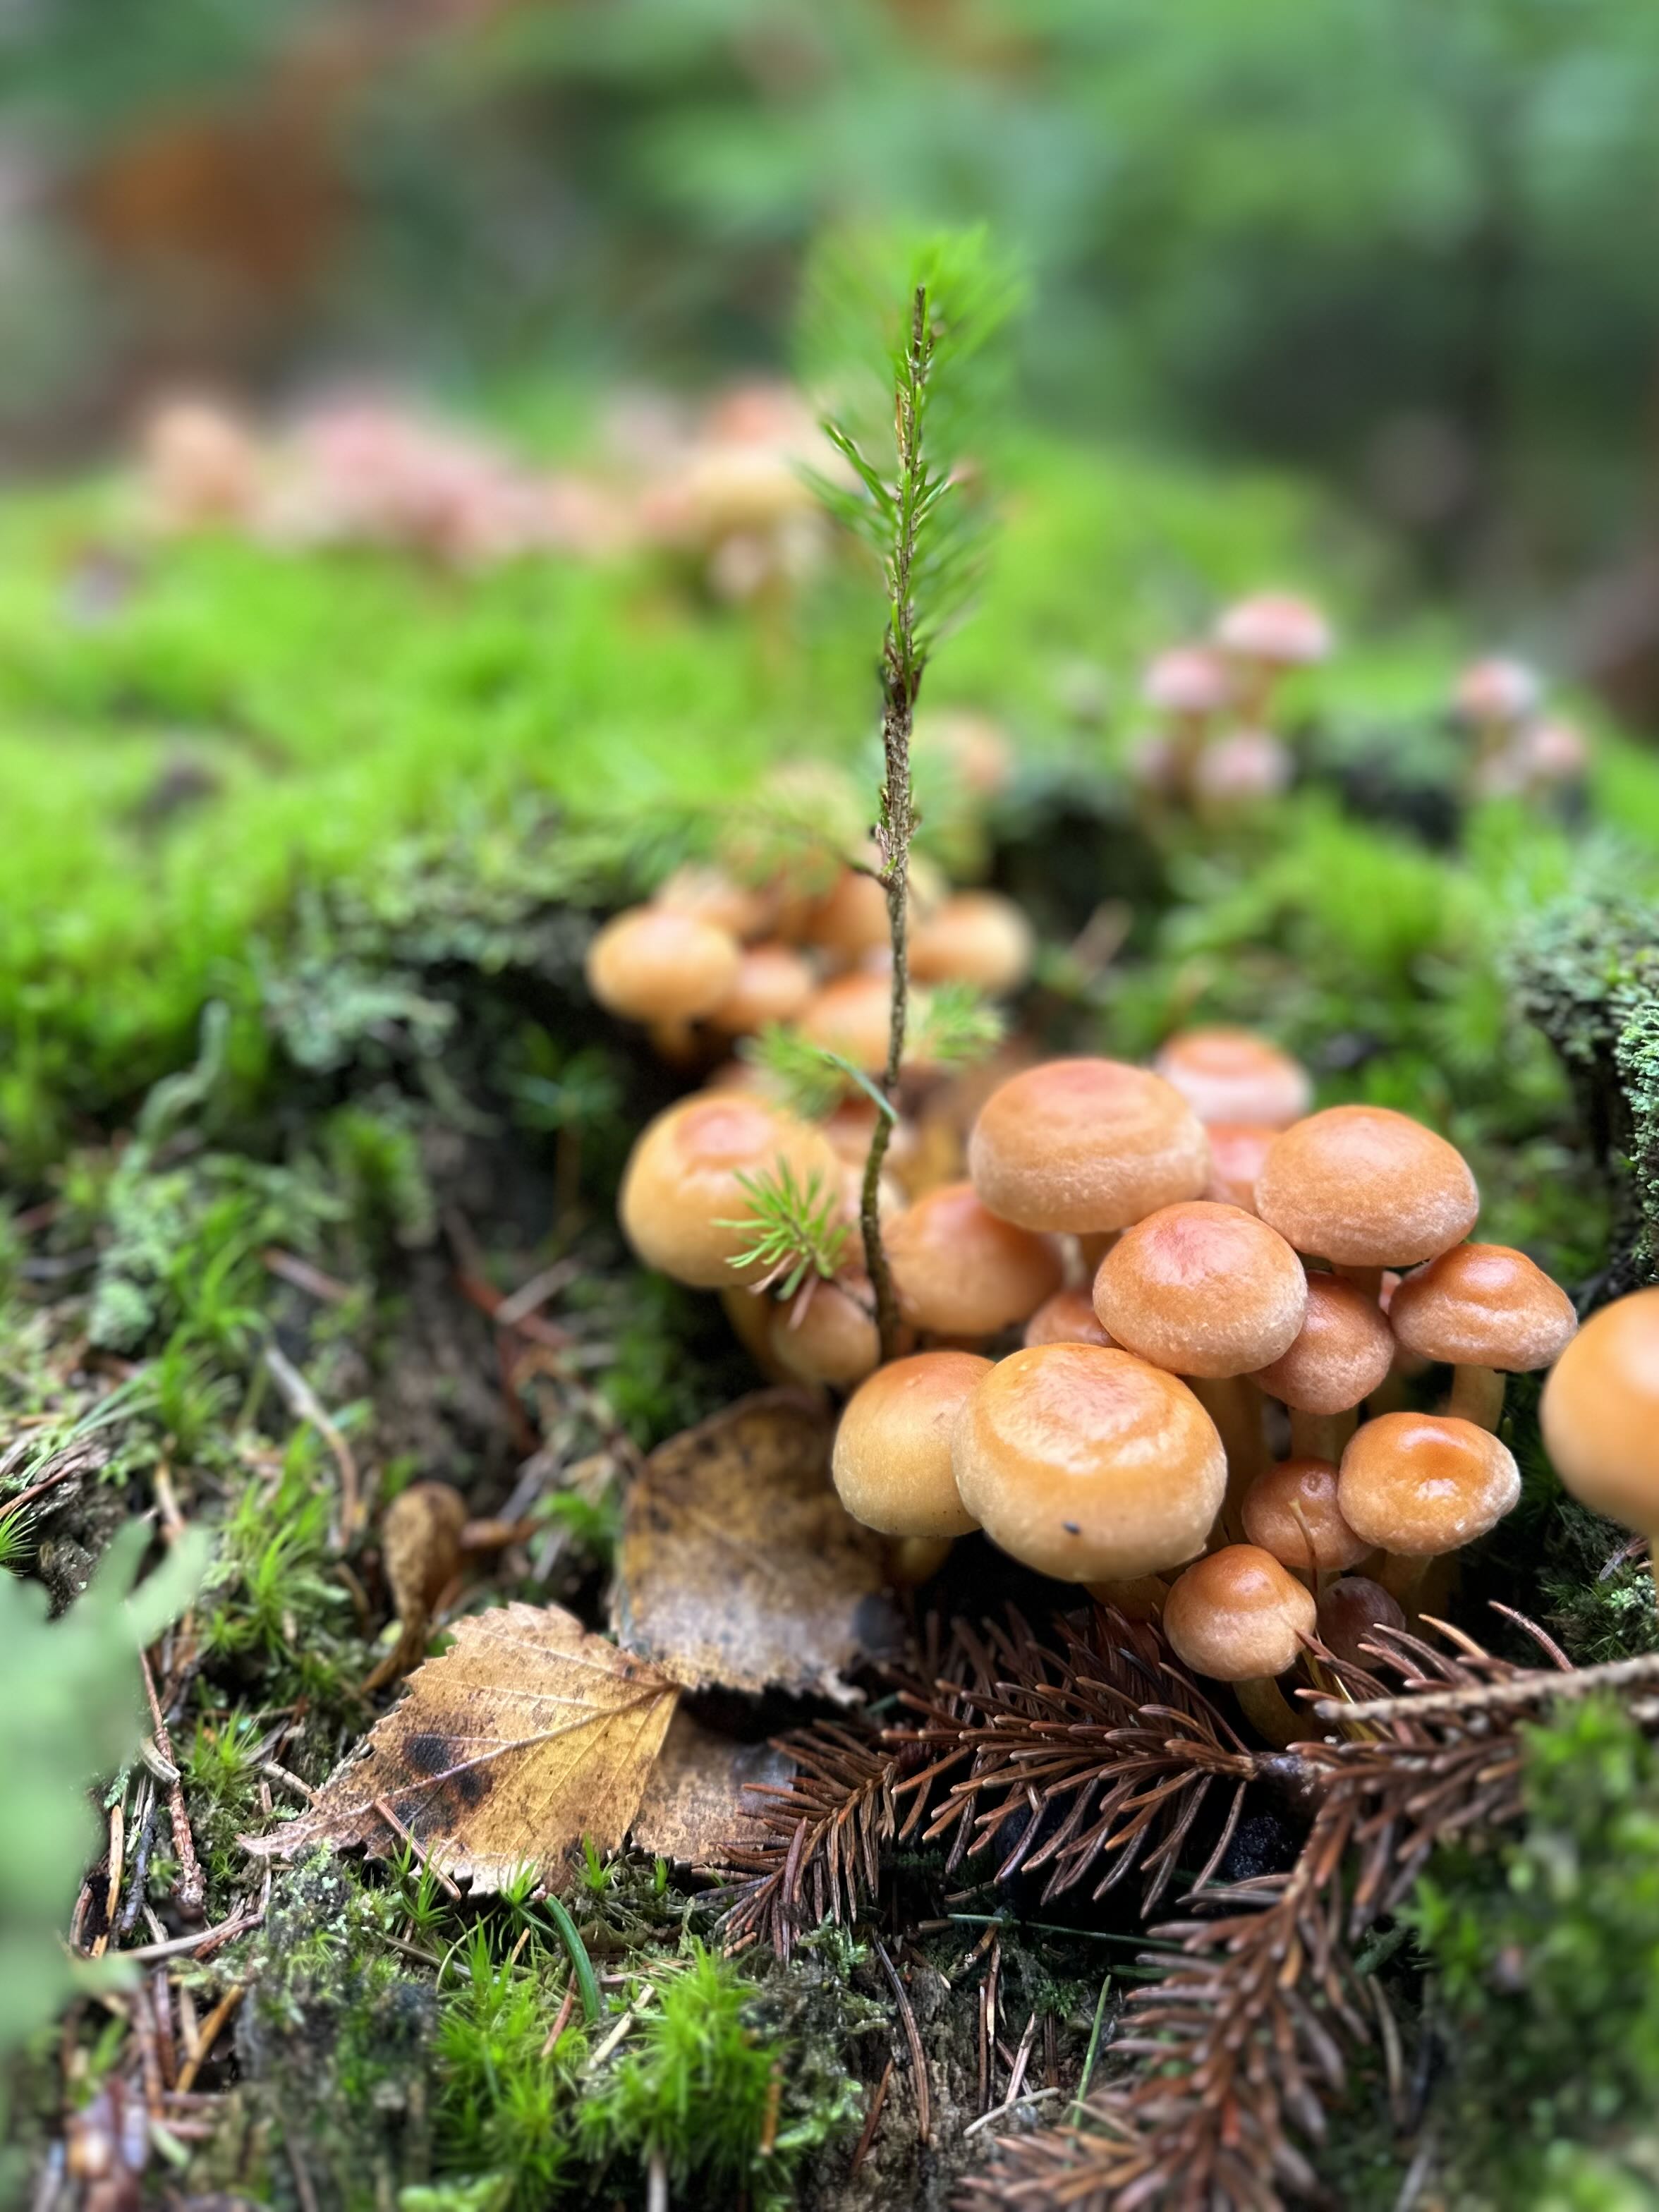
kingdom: Fungi
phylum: Basidiomycota
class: Agaricomycetes
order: Agaricales
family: Strophariaceae
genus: Hypholoma
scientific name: Hypholoma
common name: svovlhat
